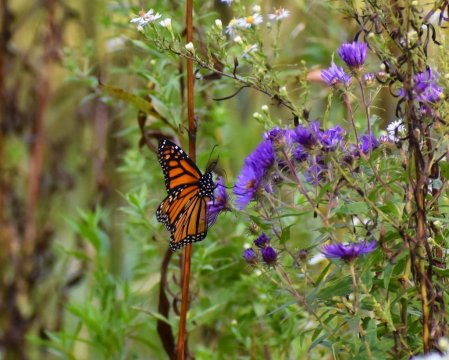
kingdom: Animalia
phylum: Arthropoda
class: Insecta
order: Lepidoptera
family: Nymphalidae
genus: Danaus
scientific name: Danaus plexippus
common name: Monarch
